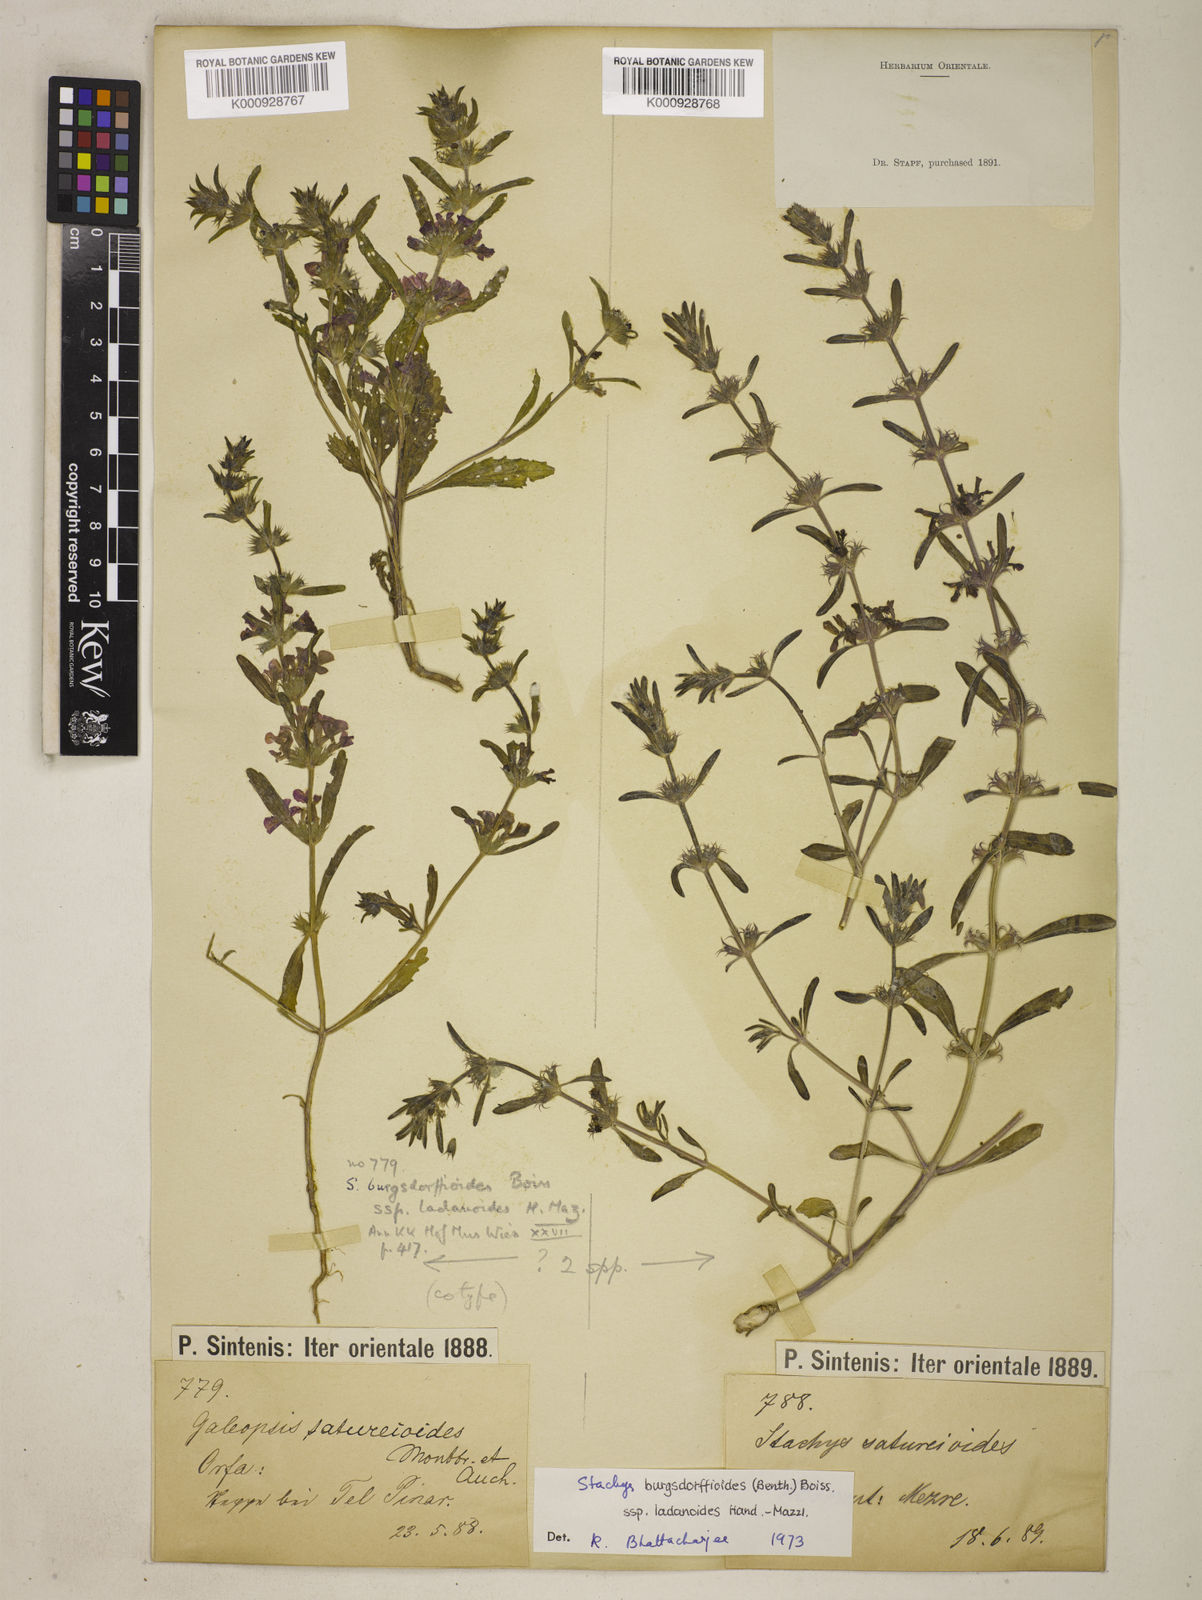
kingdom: Plantae
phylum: Tracheophyta
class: Magnoliopsida
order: Lamiales
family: Lamiaceae
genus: Stachys
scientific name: Stachys burgsdorffioides
